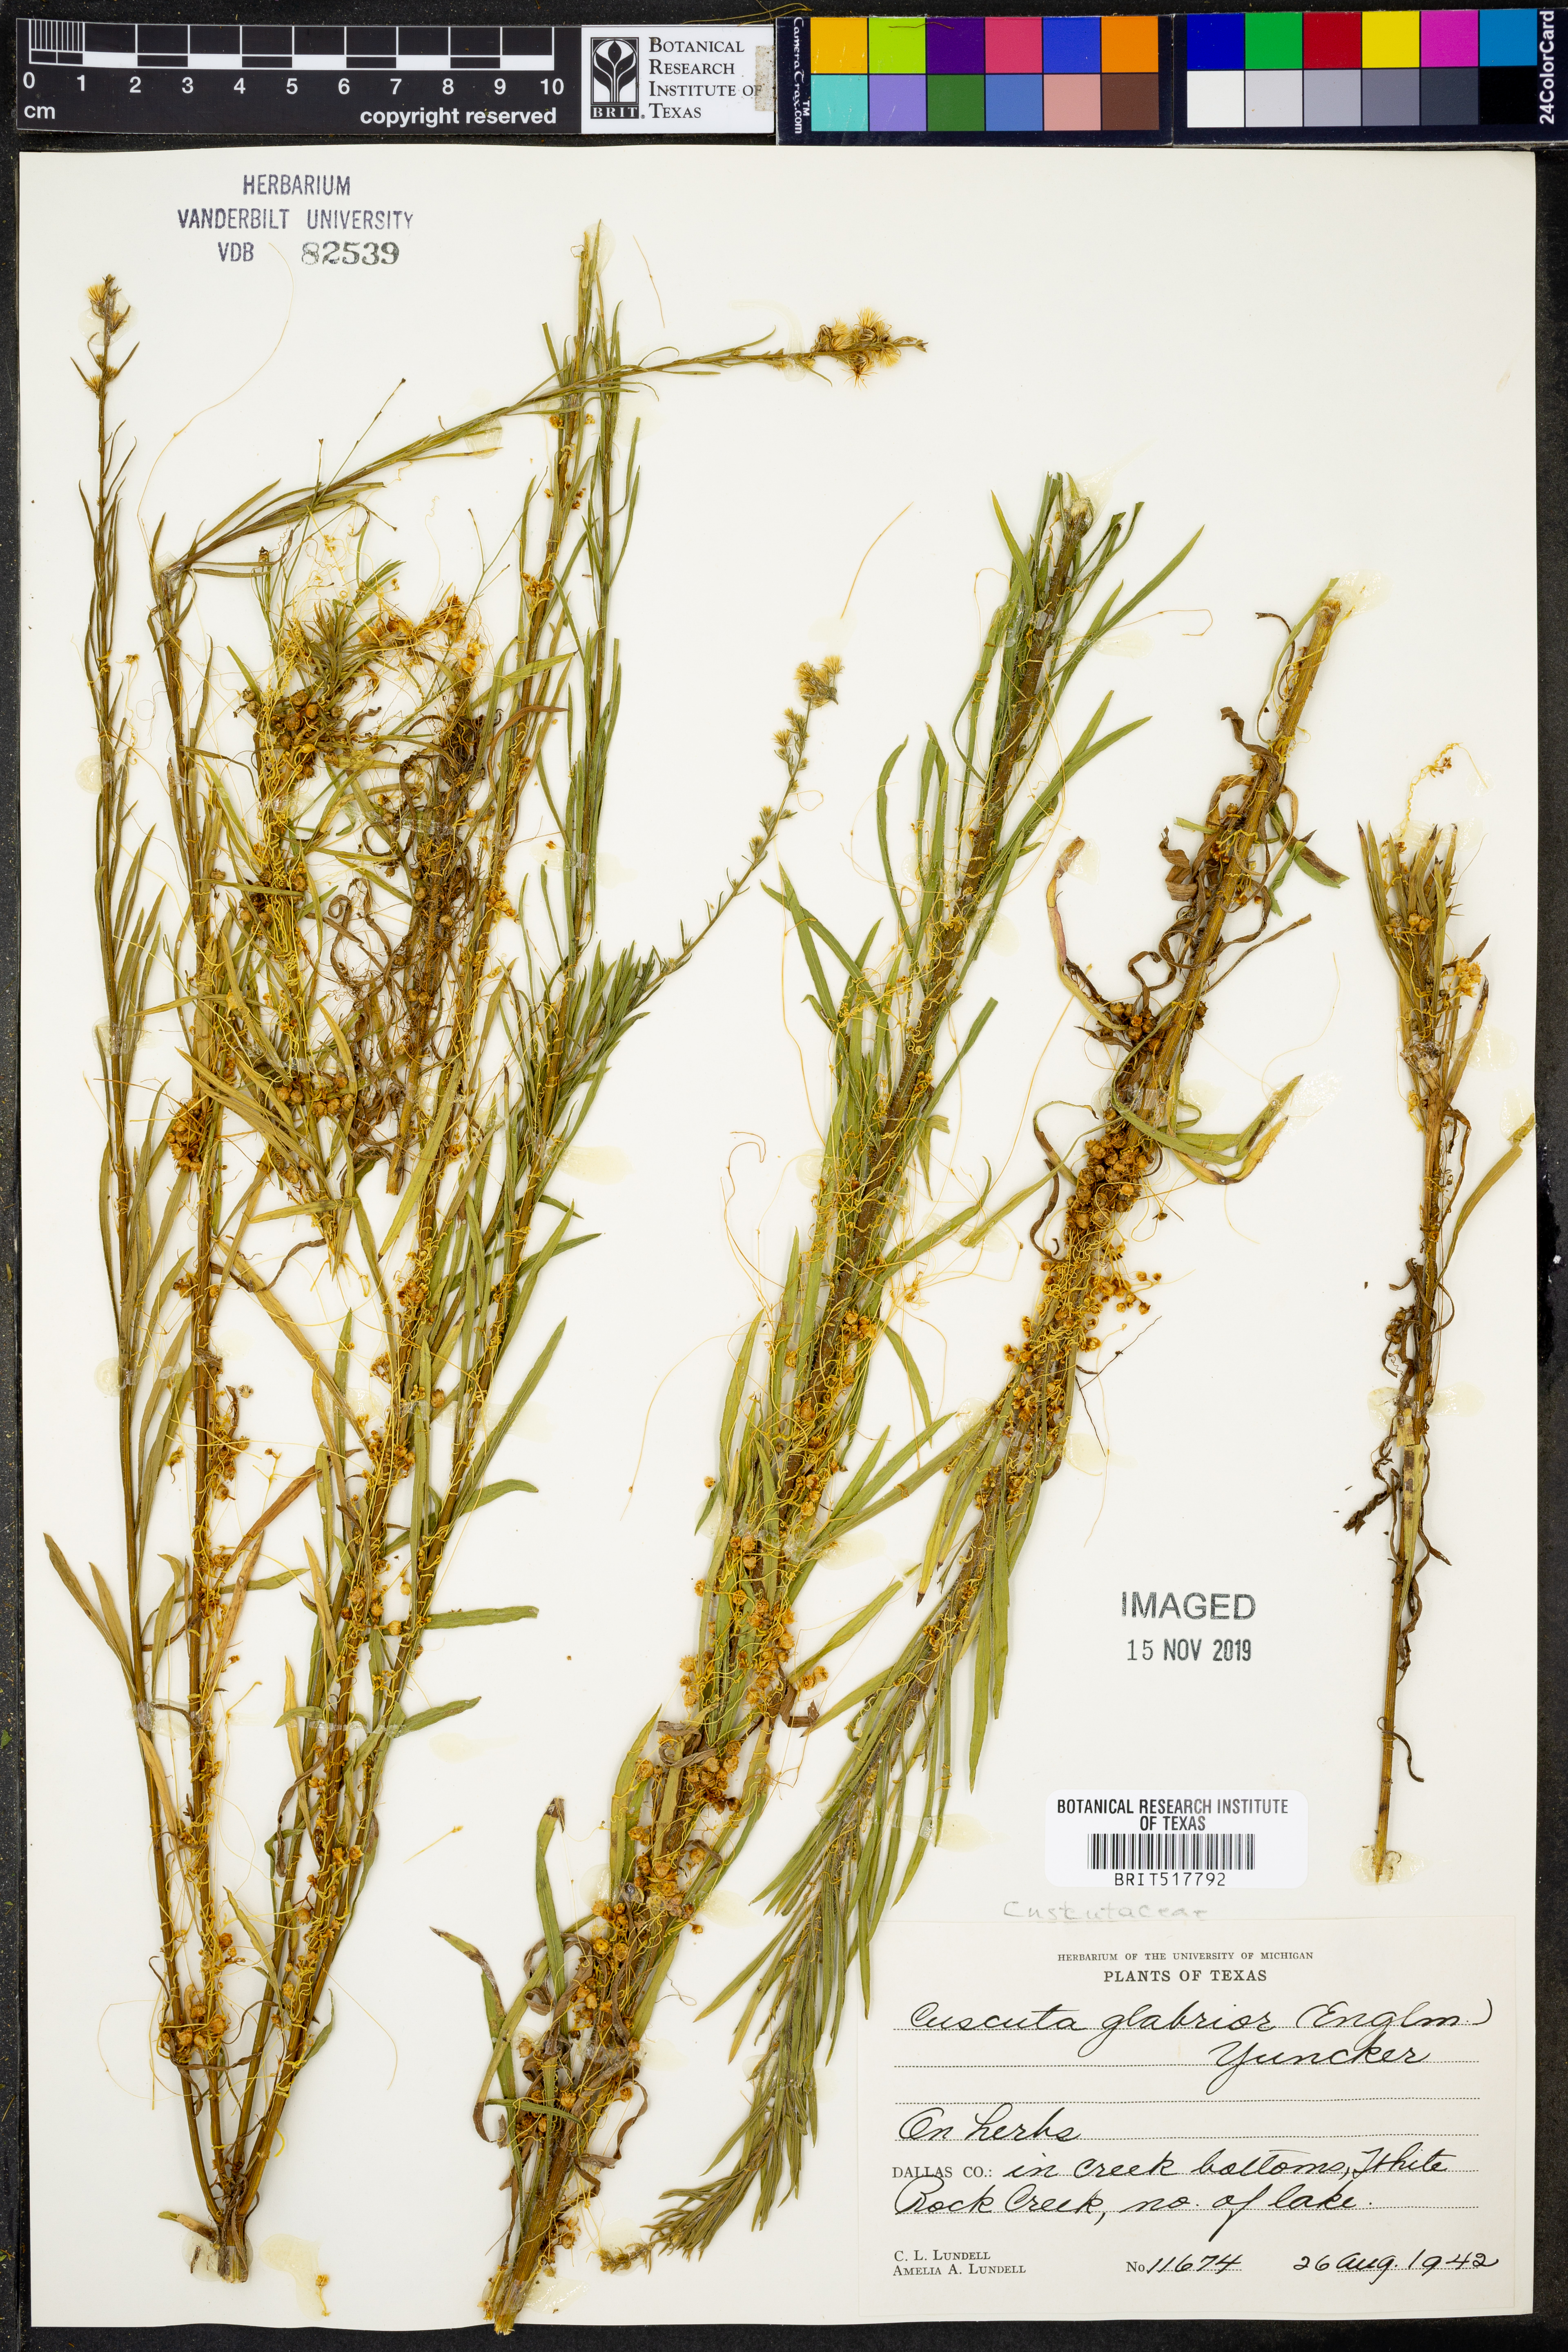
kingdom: Plantae
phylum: Tracheophyta
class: Magnoliopsida
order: Solanales
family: Convolvulaceae
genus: Cuscuta
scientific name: Cuscuta glabrior
